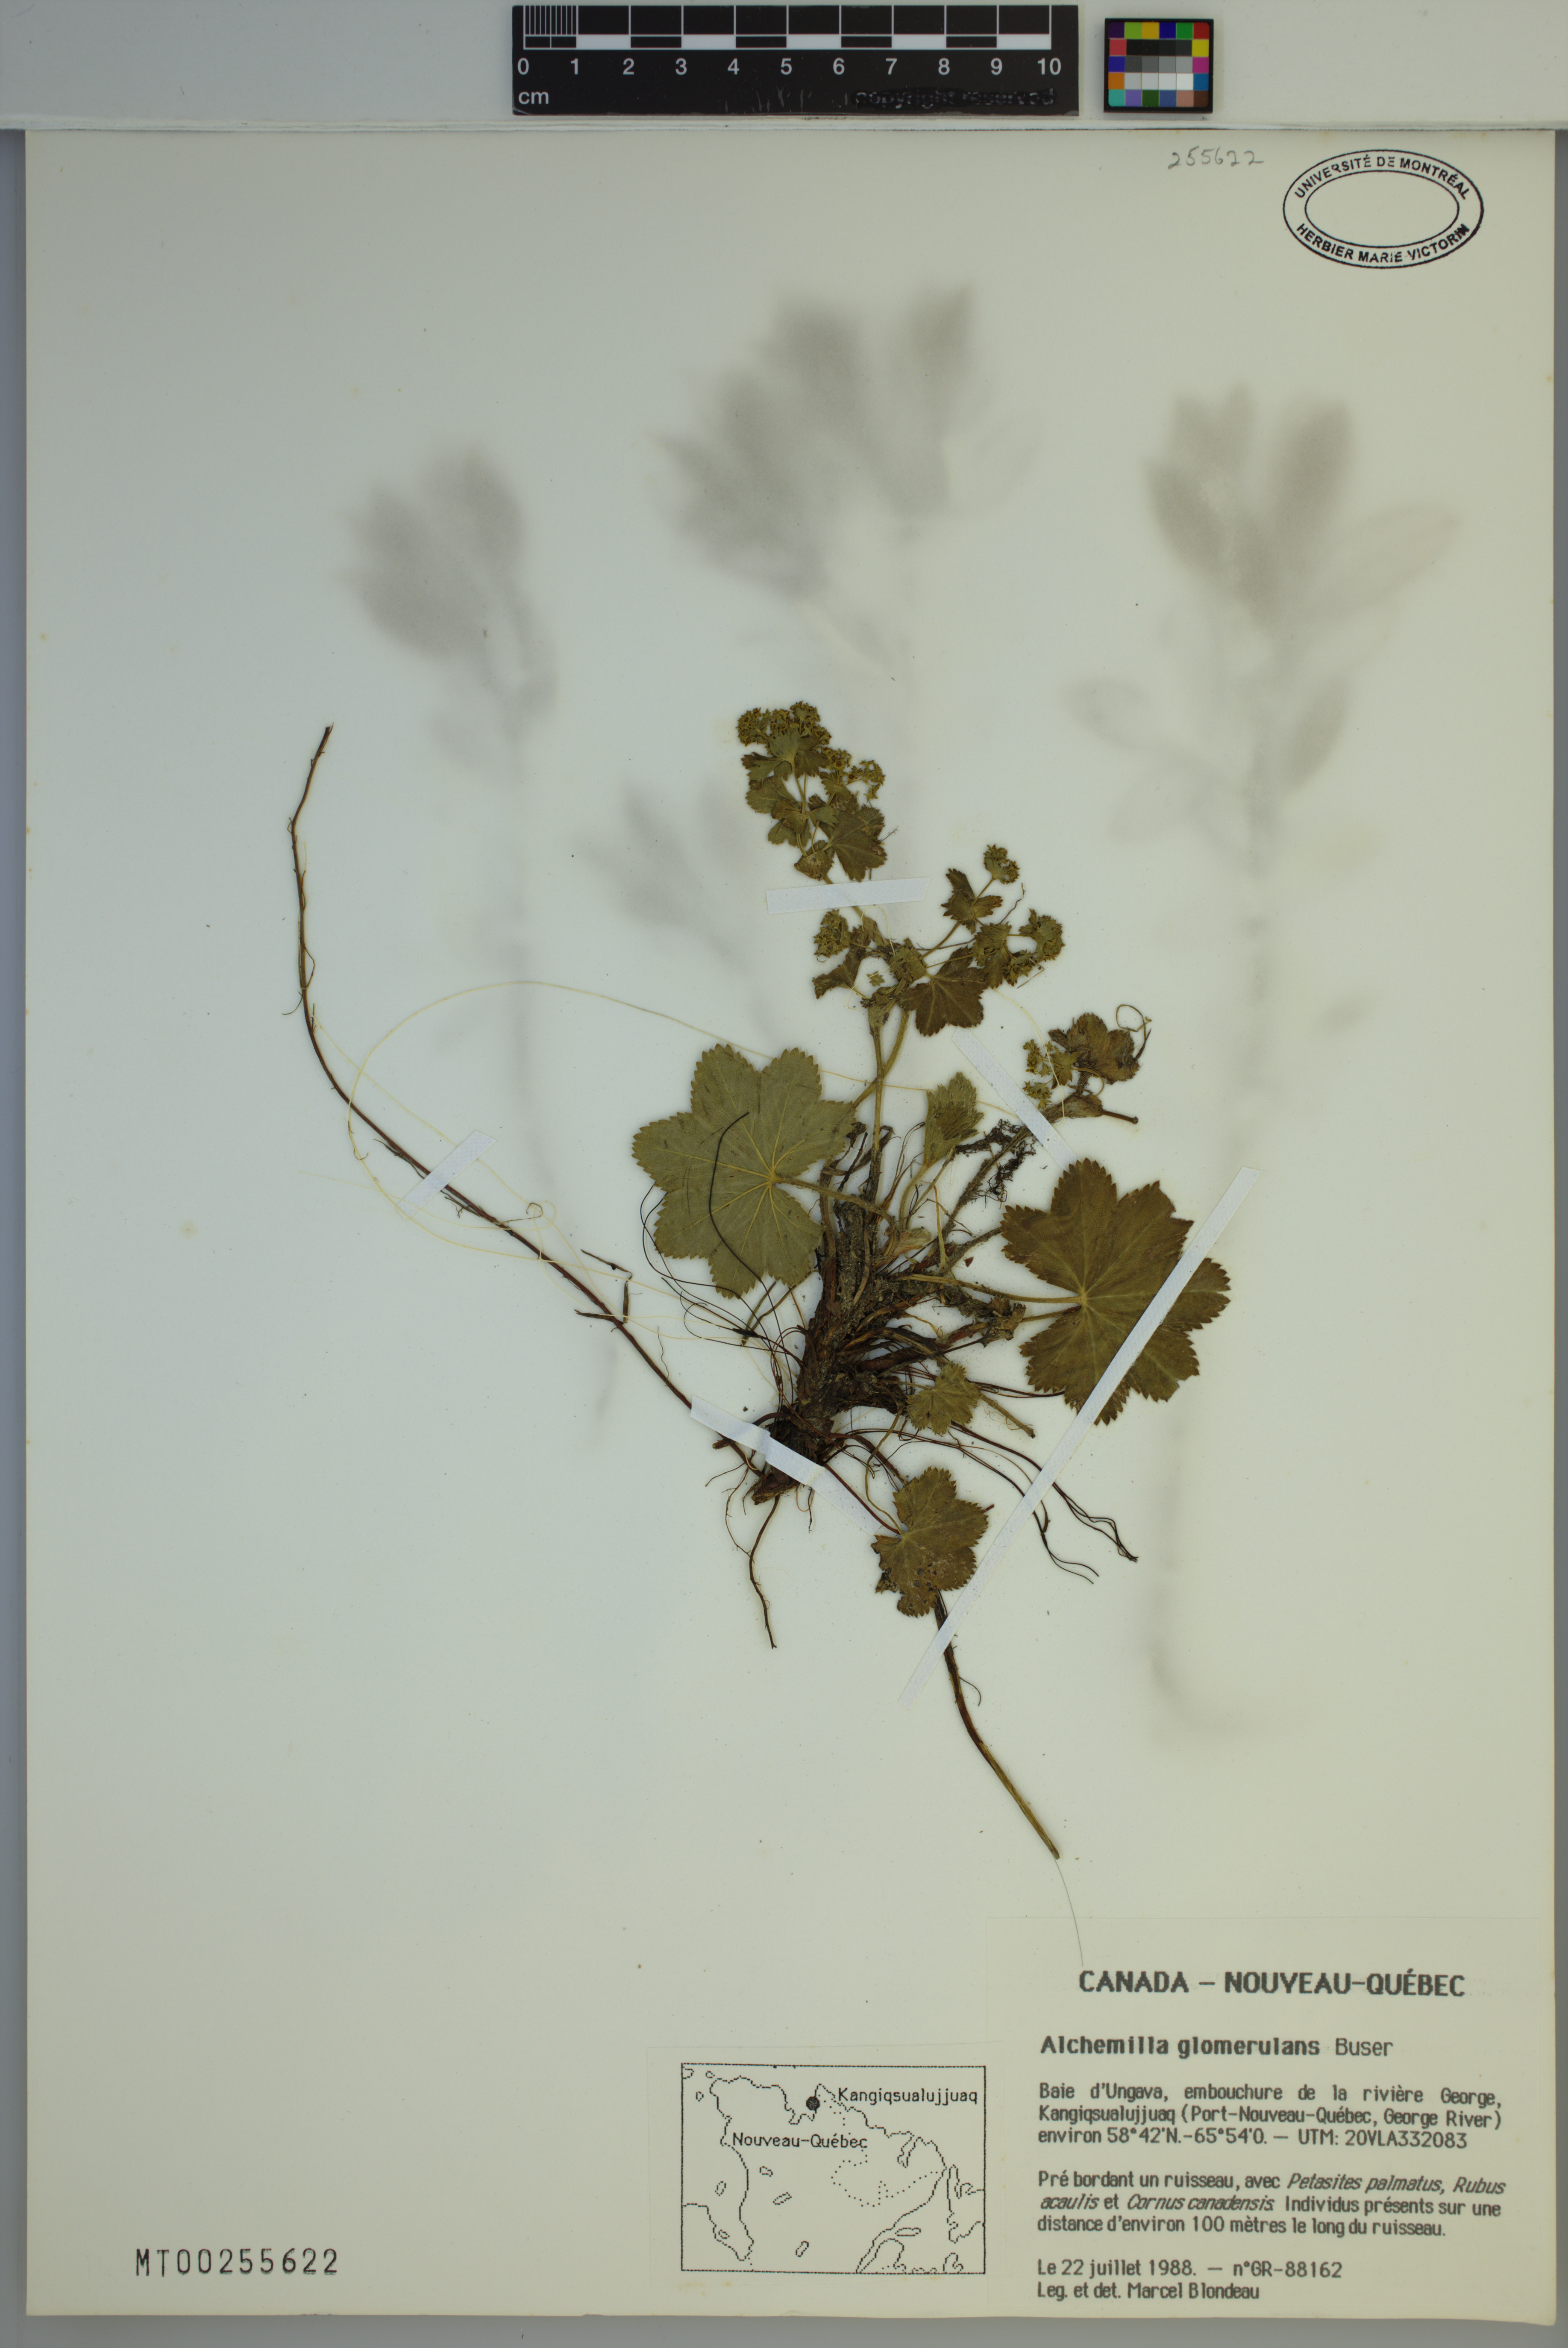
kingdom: Plantae
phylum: Tracheophyta
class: Magnoliopsida
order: Rosales
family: Rosaceae
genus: Alchemilla
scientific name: Alchemilla glomerulans
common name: Clustered lady's mantle
